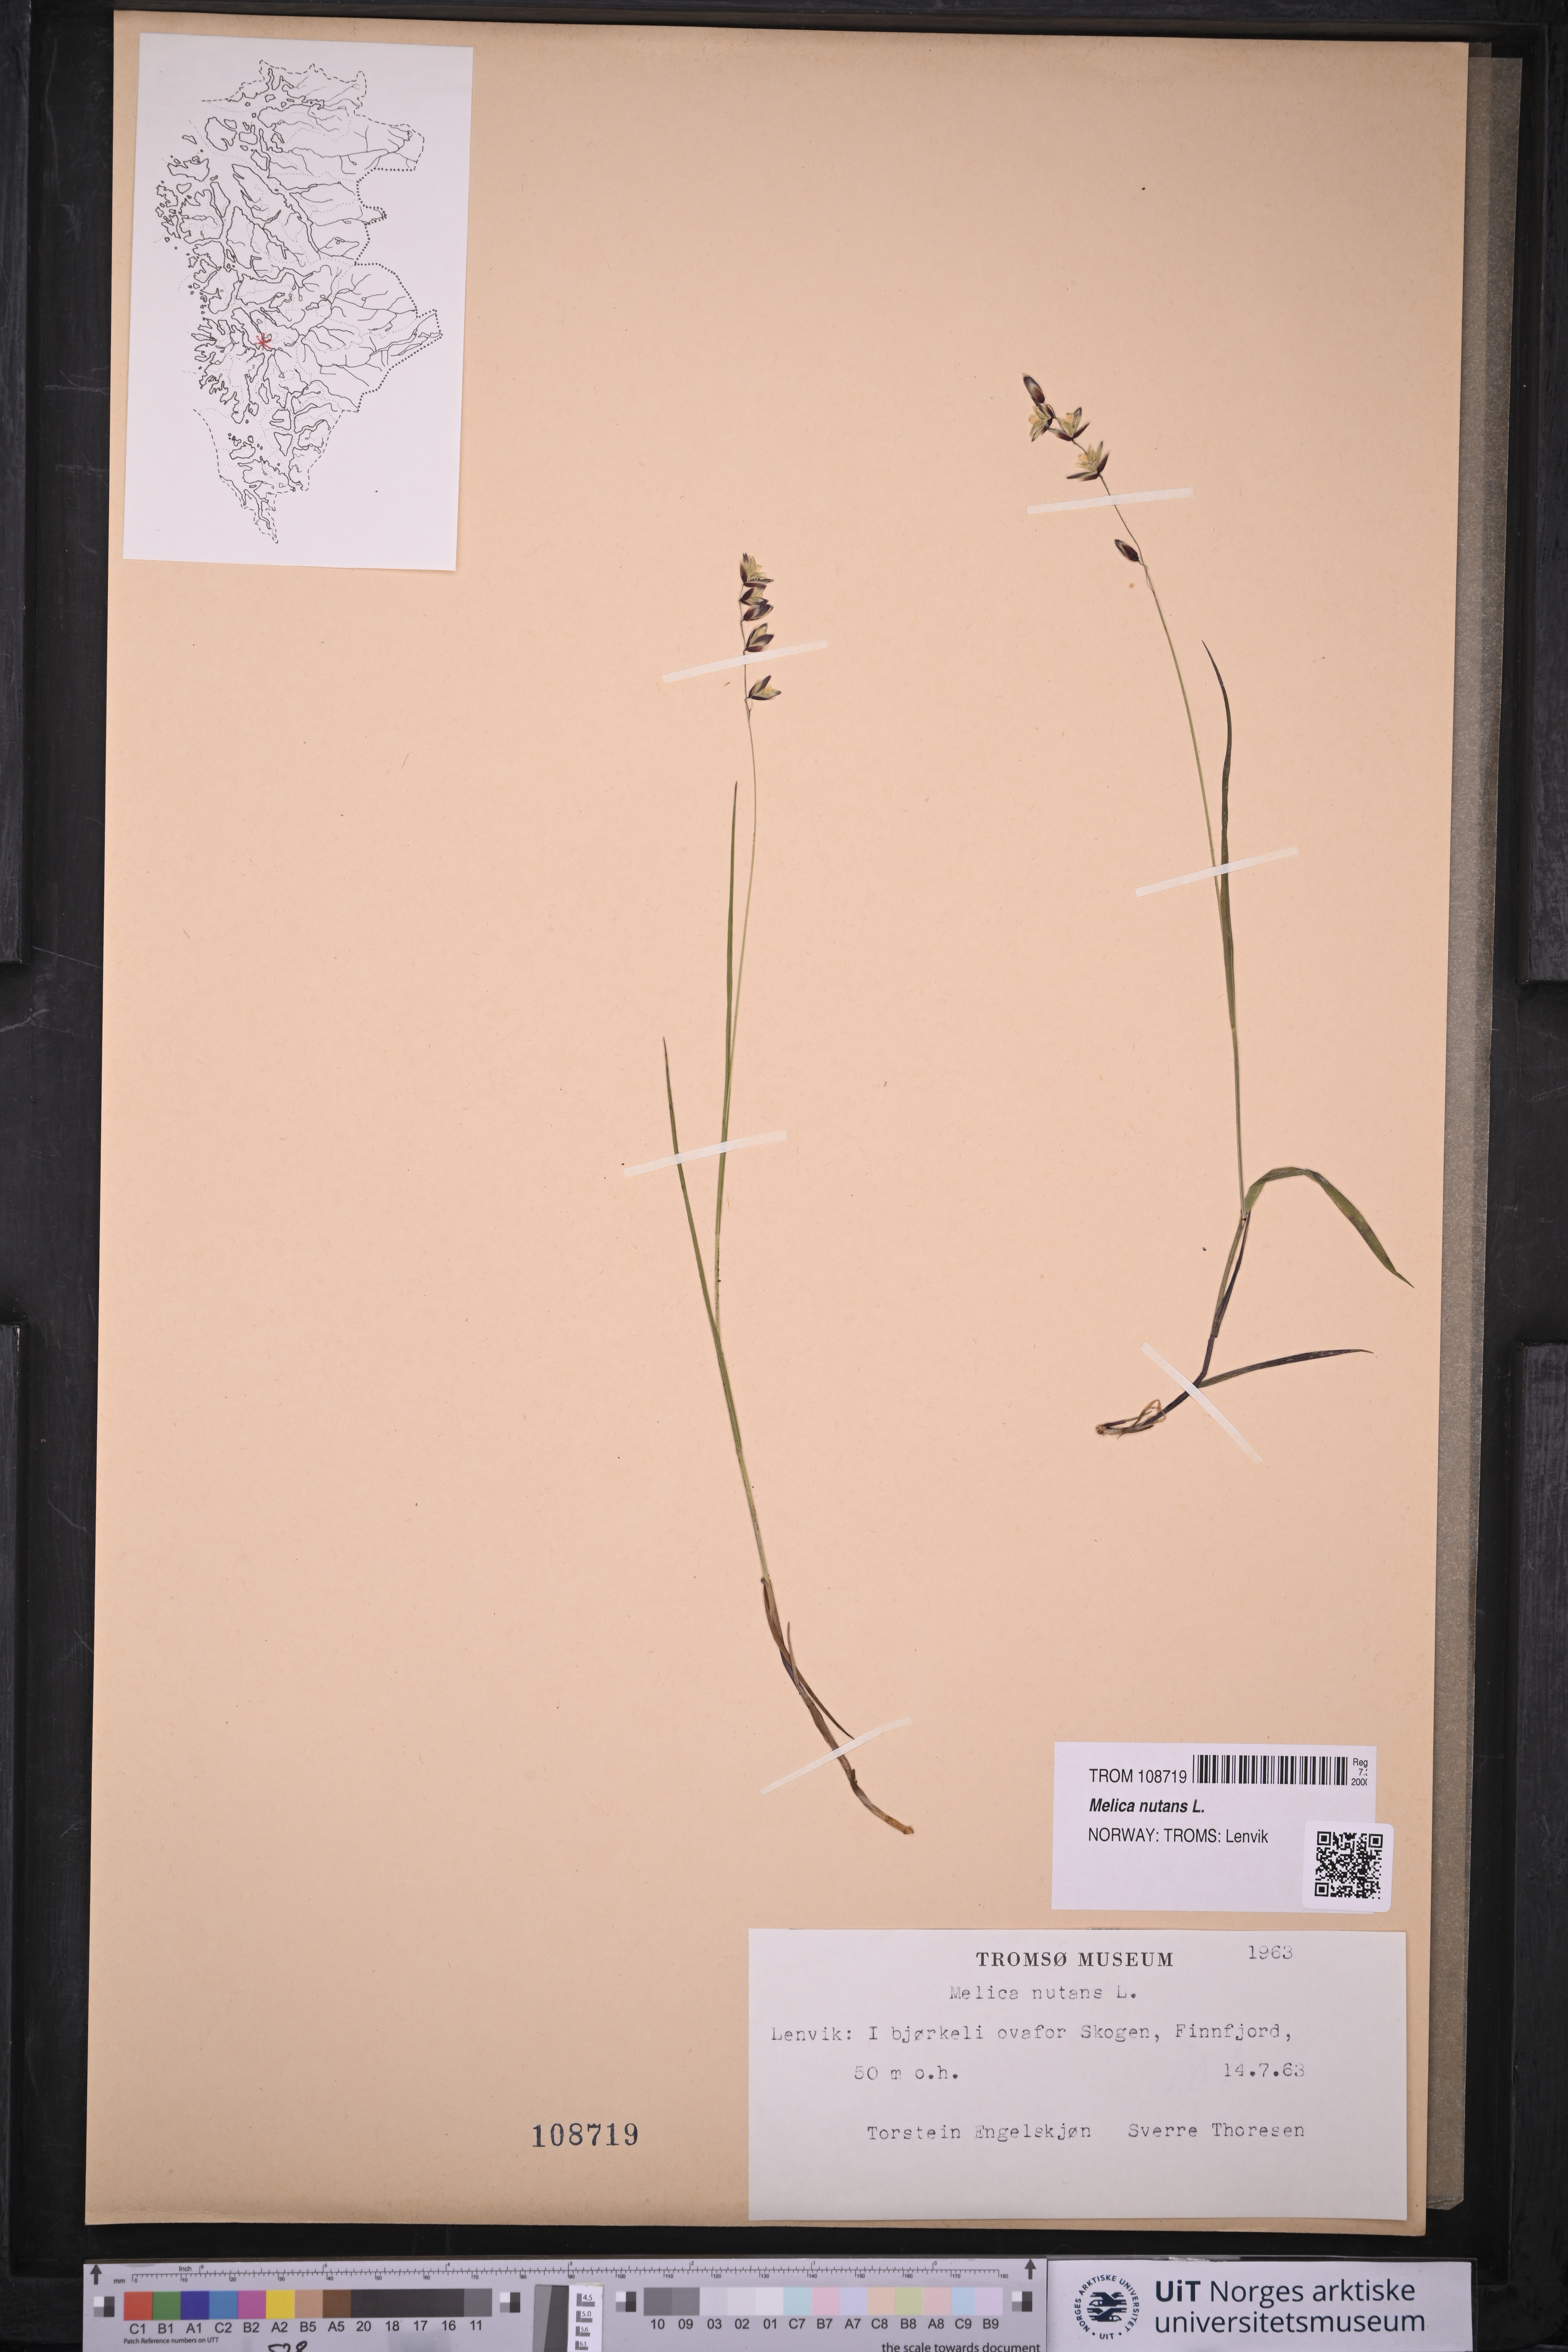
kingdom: Plantae
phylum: Tracheophyta
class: Liliopsida
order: Poales
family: Poaceae
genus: Melica
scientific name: Melica nutans
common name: Mountain melick
